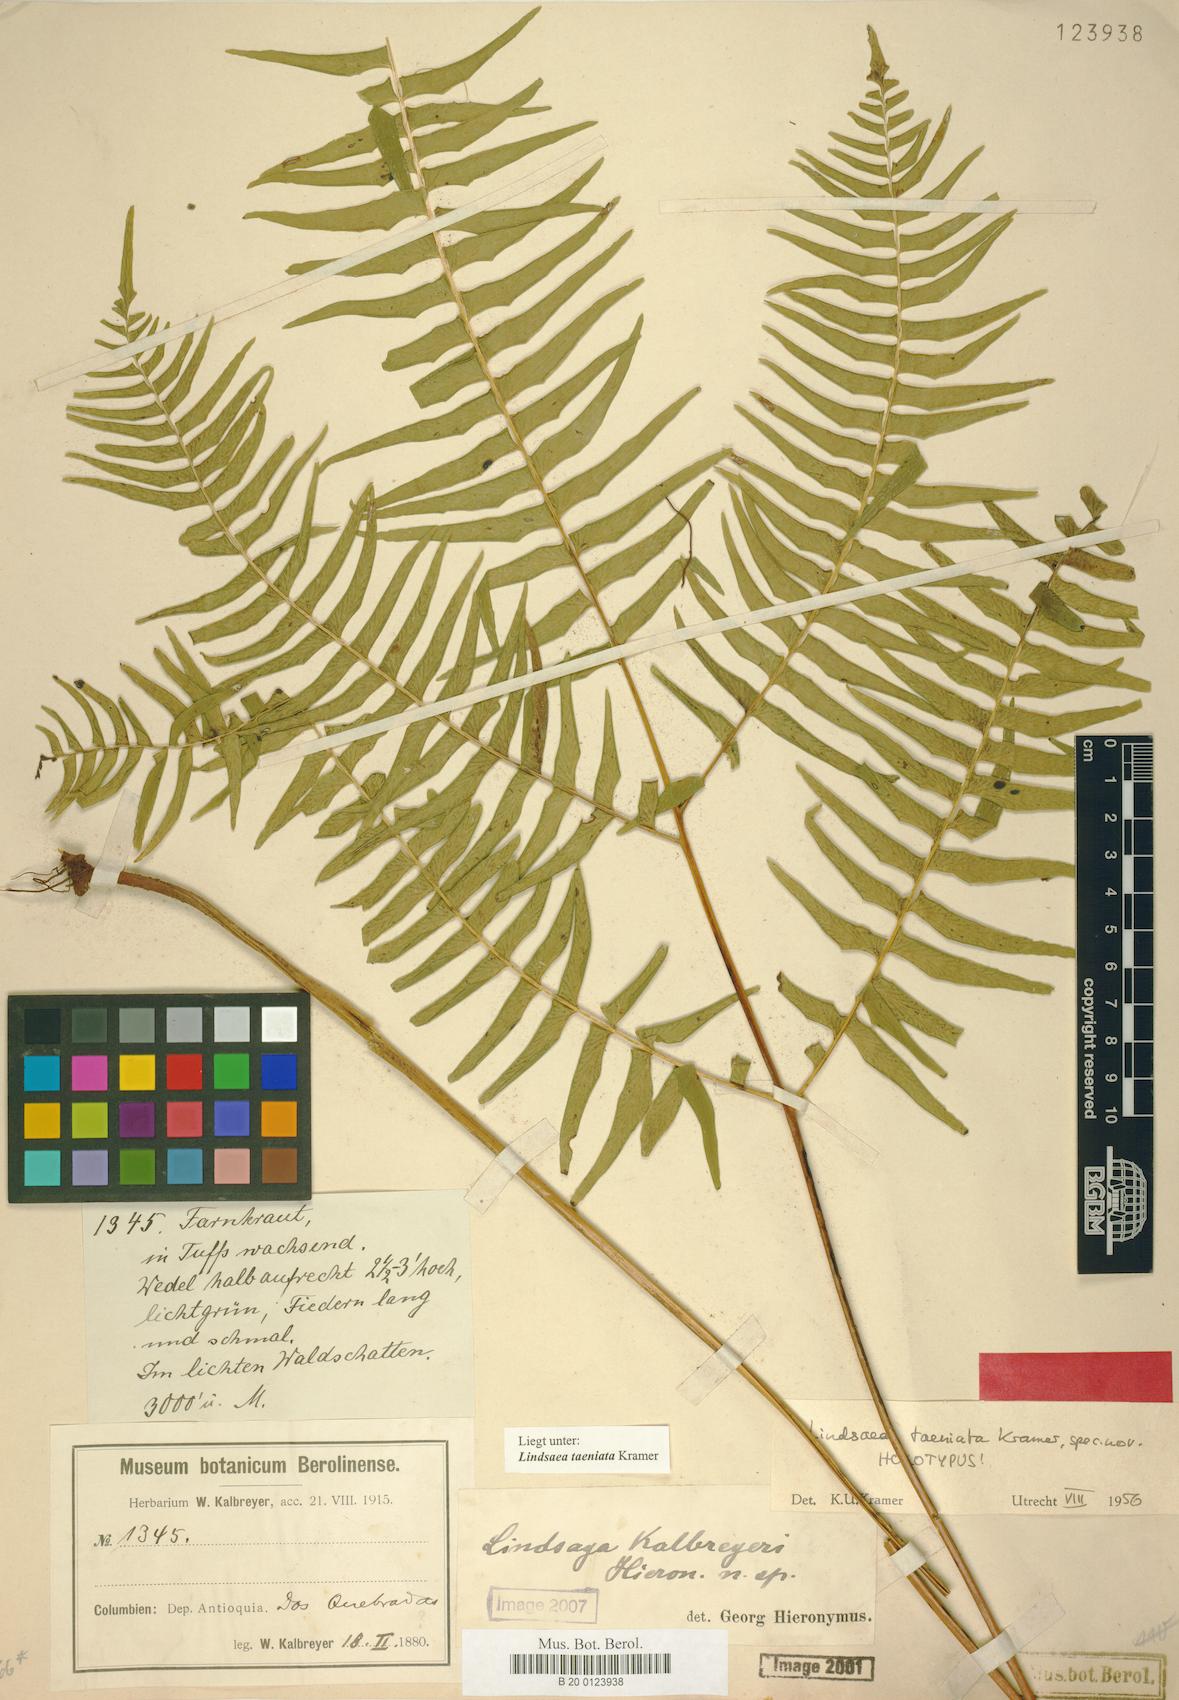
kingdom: Plantae
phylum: Tracheophyta
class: Polypodiopsida
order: Polypodiales
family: Lindsaeaceae
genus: Lindsaea
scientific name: Lindsaea taeniata
